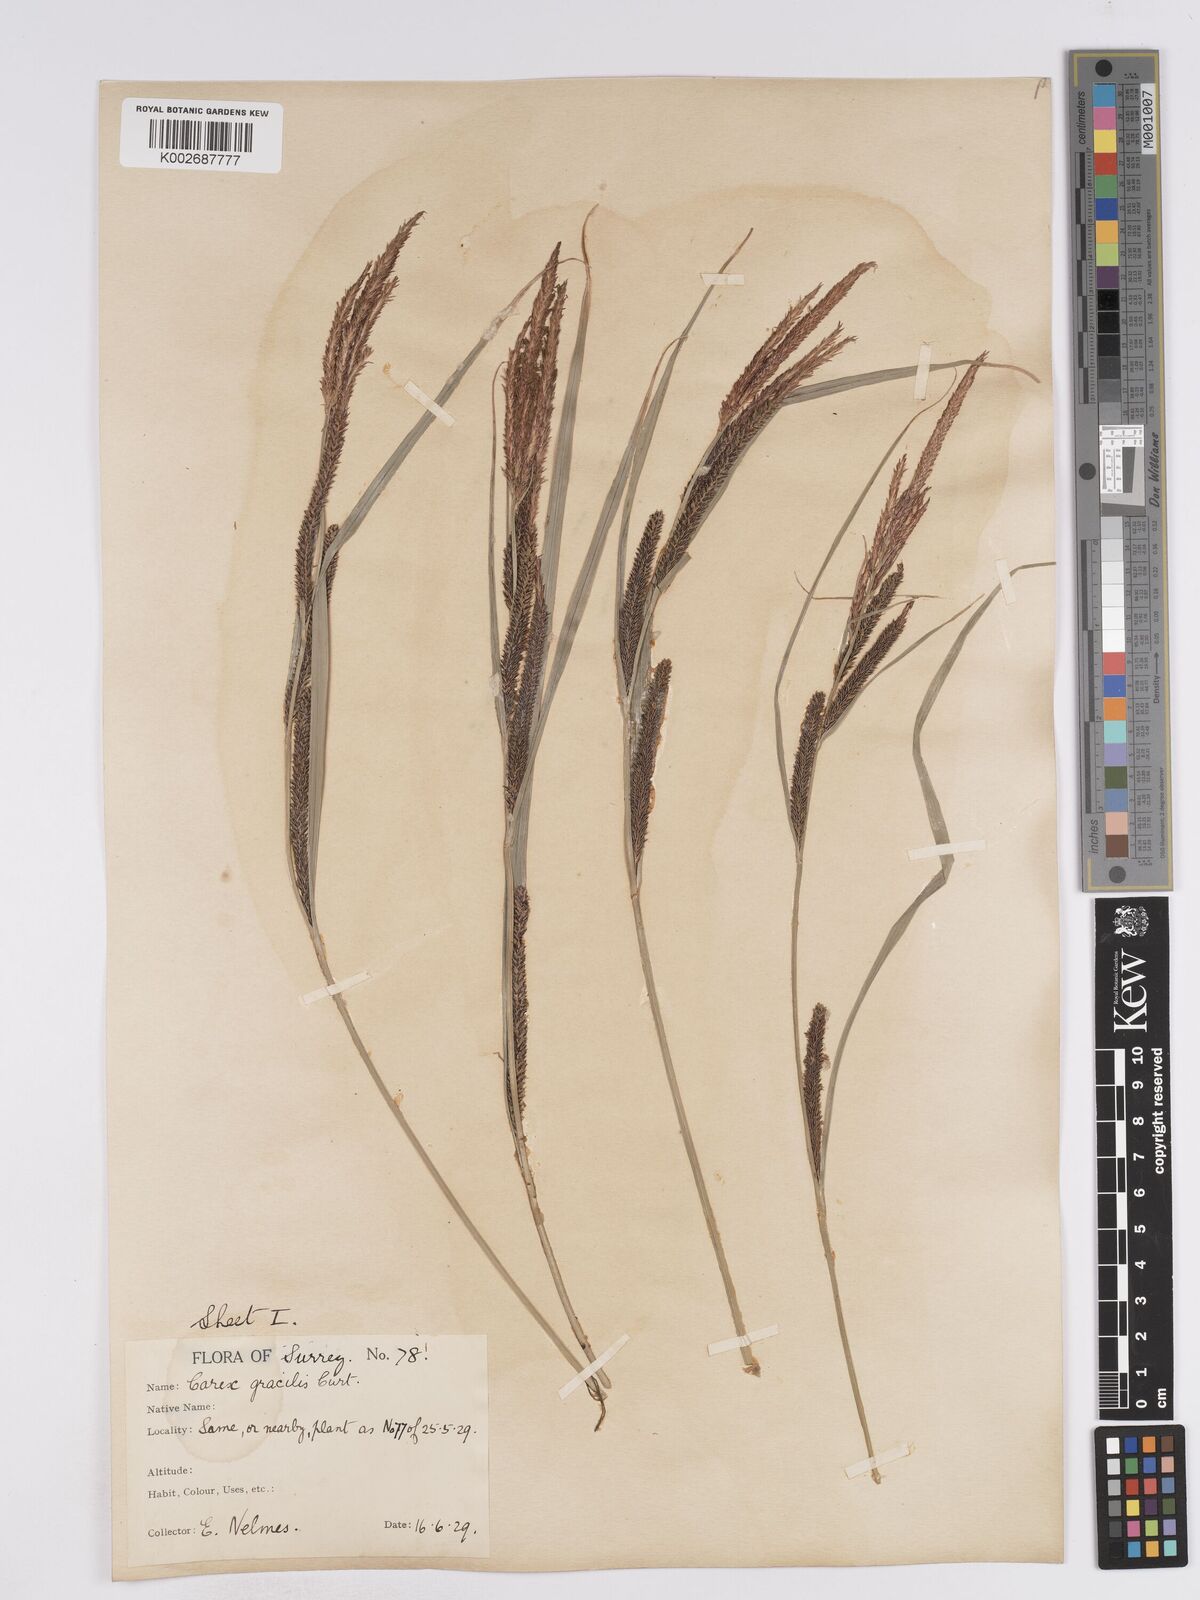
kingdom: Plantae
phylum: Tracheophyta
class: Liliopsida
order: Poales
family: Cyperaceae
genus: Carex
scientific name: Carex acuta
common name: Slender tufted-sedge
